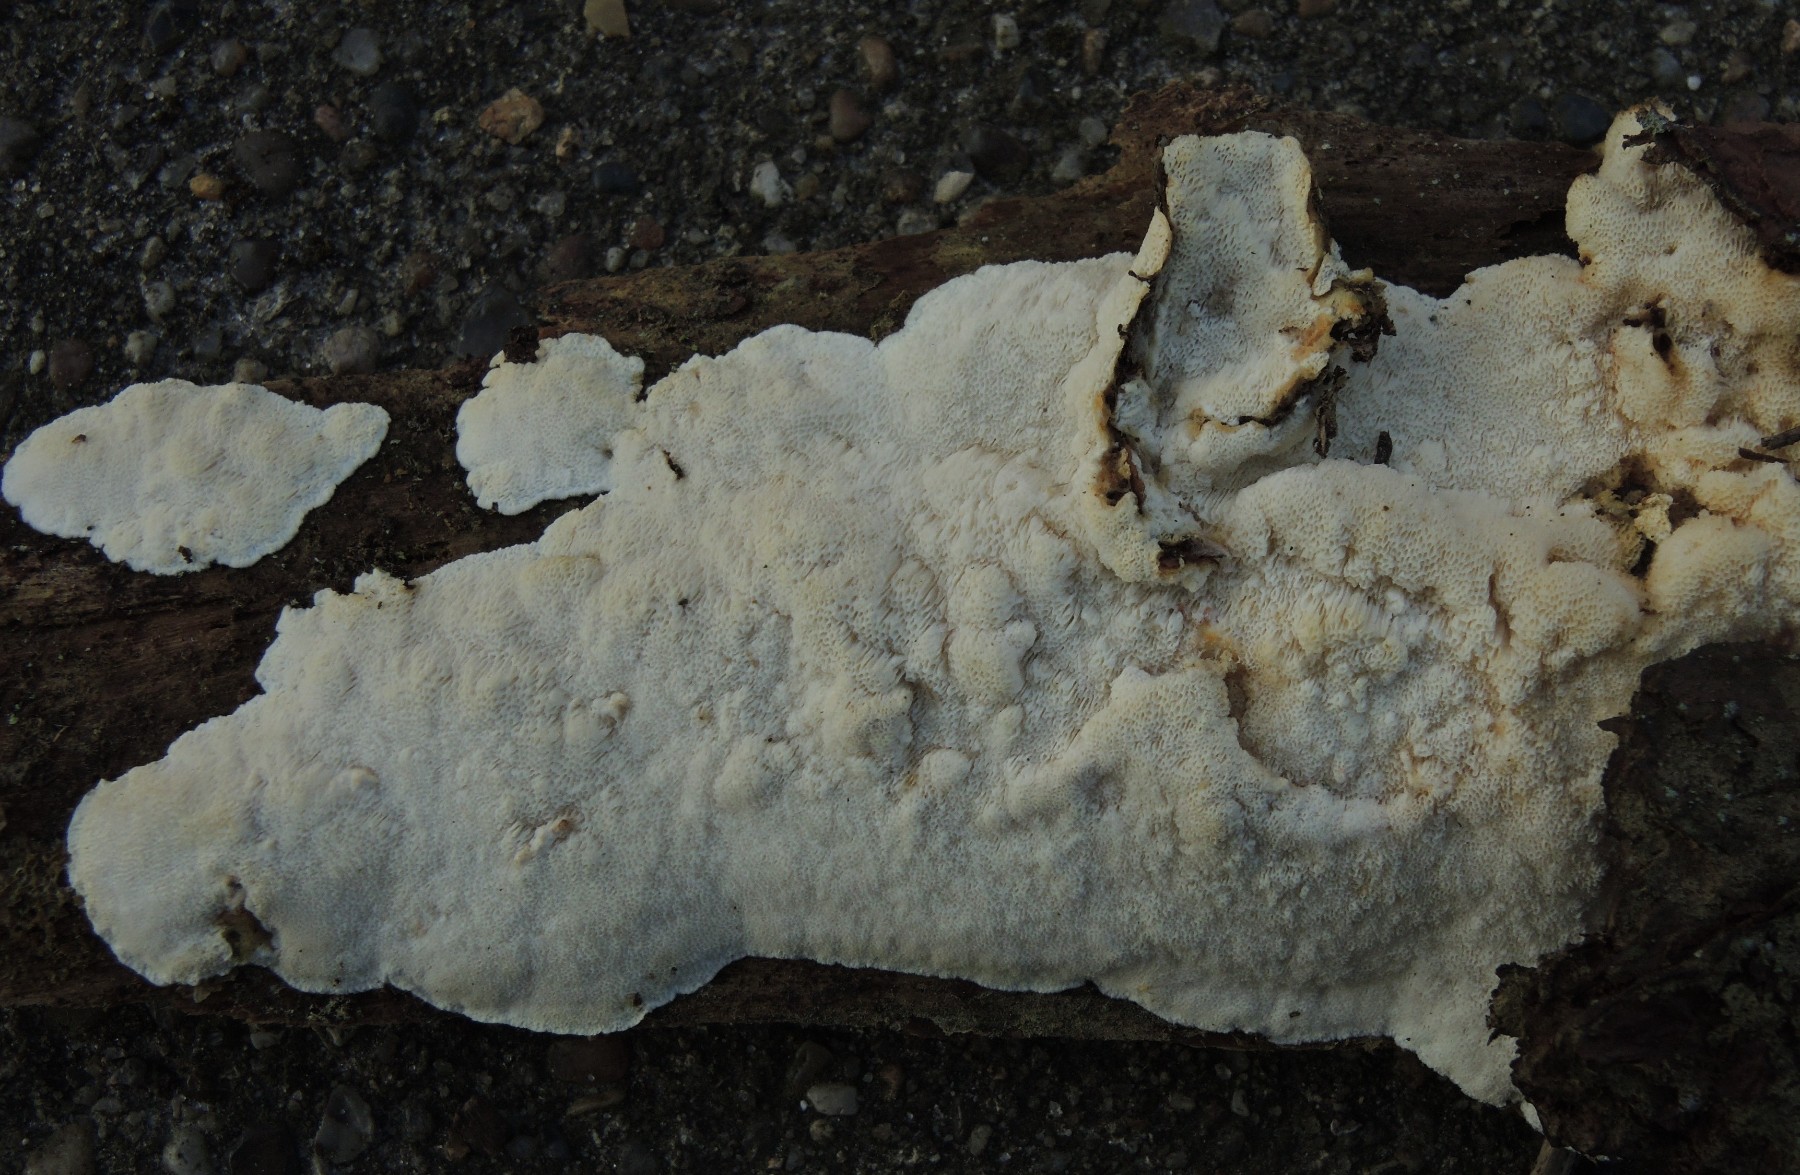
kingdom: Fungi
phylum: Basidiomycota
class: Agaricomycetes
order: Polyporales
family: Gelatoporiaceae
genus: Cinereomyces
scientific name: Cinereomyces lindbladii
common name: almindelig gråporesvamp
